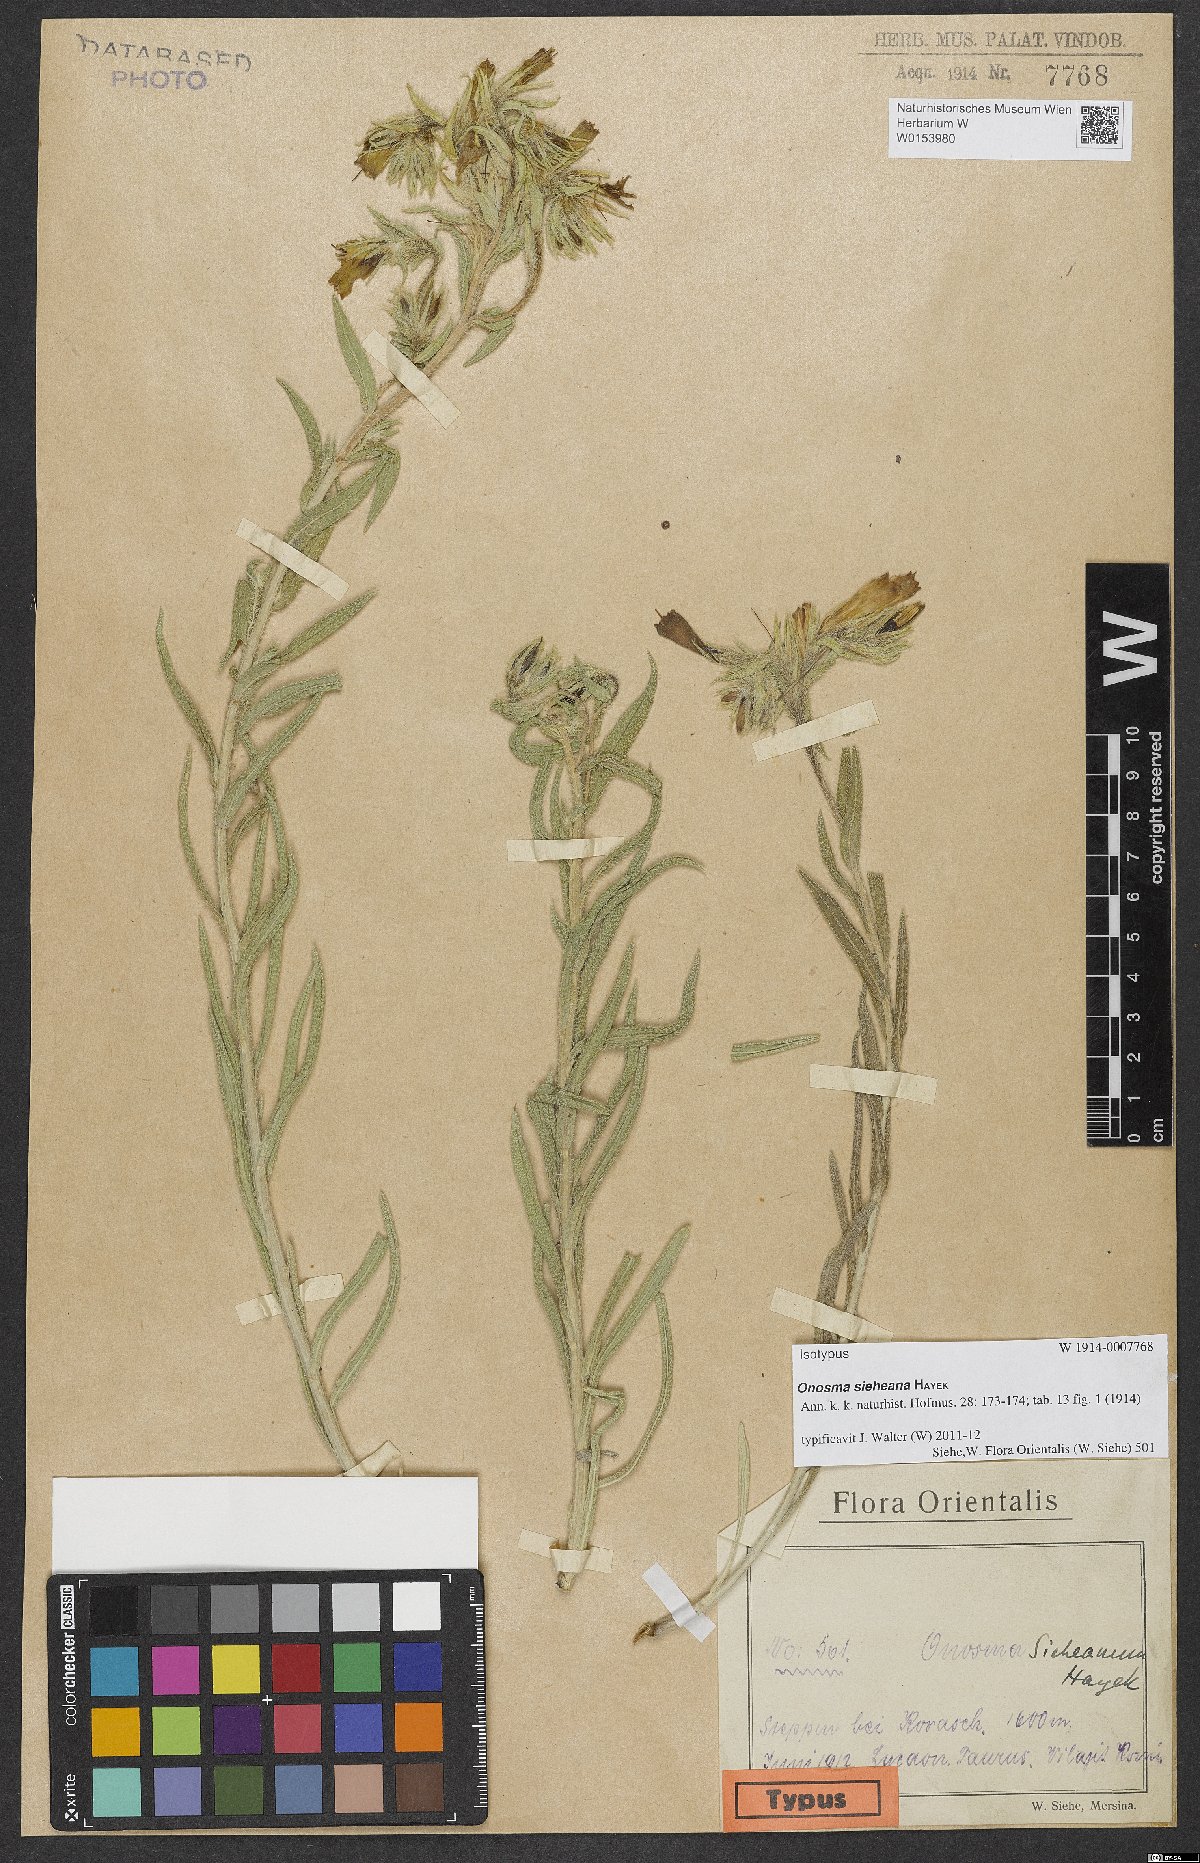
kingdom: Plantae
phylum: Tracheophyta
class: Magnoliopsida
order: Boraginales
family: Boraginaceae
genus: Onosma
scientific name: Onosma sieheana
